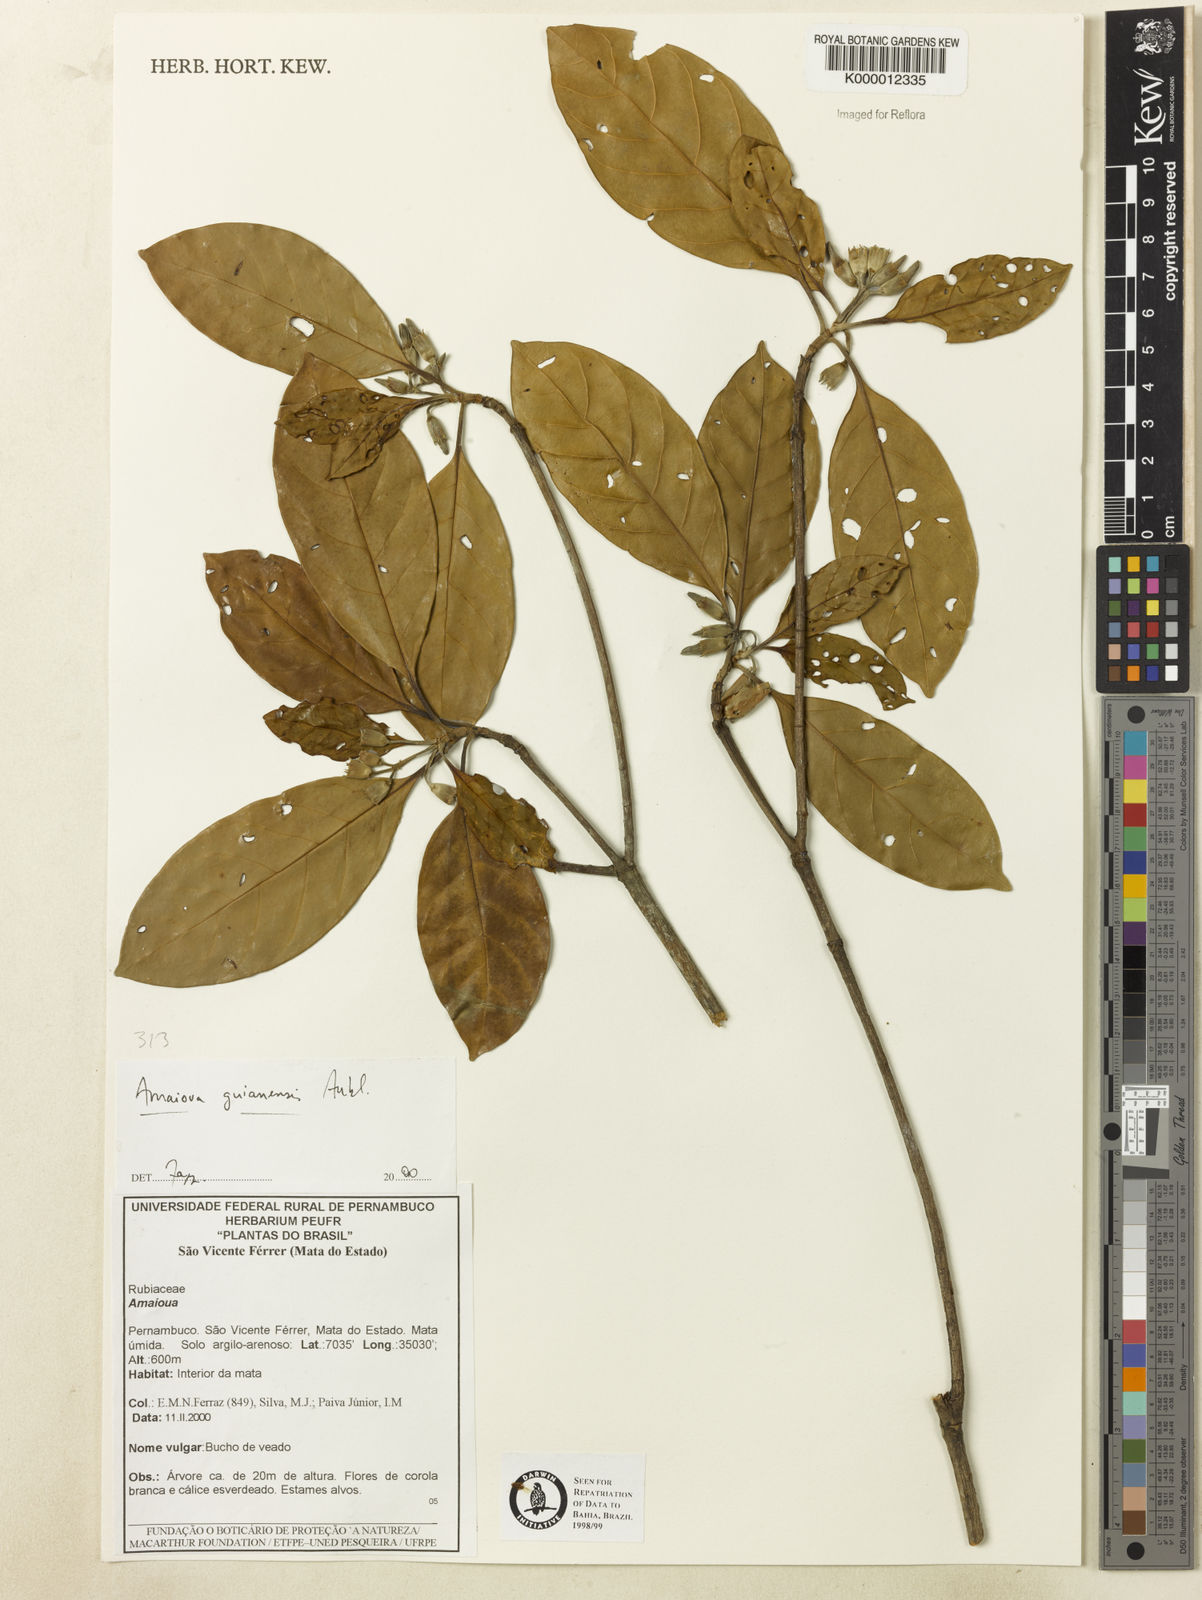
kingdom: Plantae
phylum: Tracheophyta
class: Magnoliopsida
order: Gentianales
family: Rubiaceae
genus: Amaioua
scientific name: Amaioua guianensis
